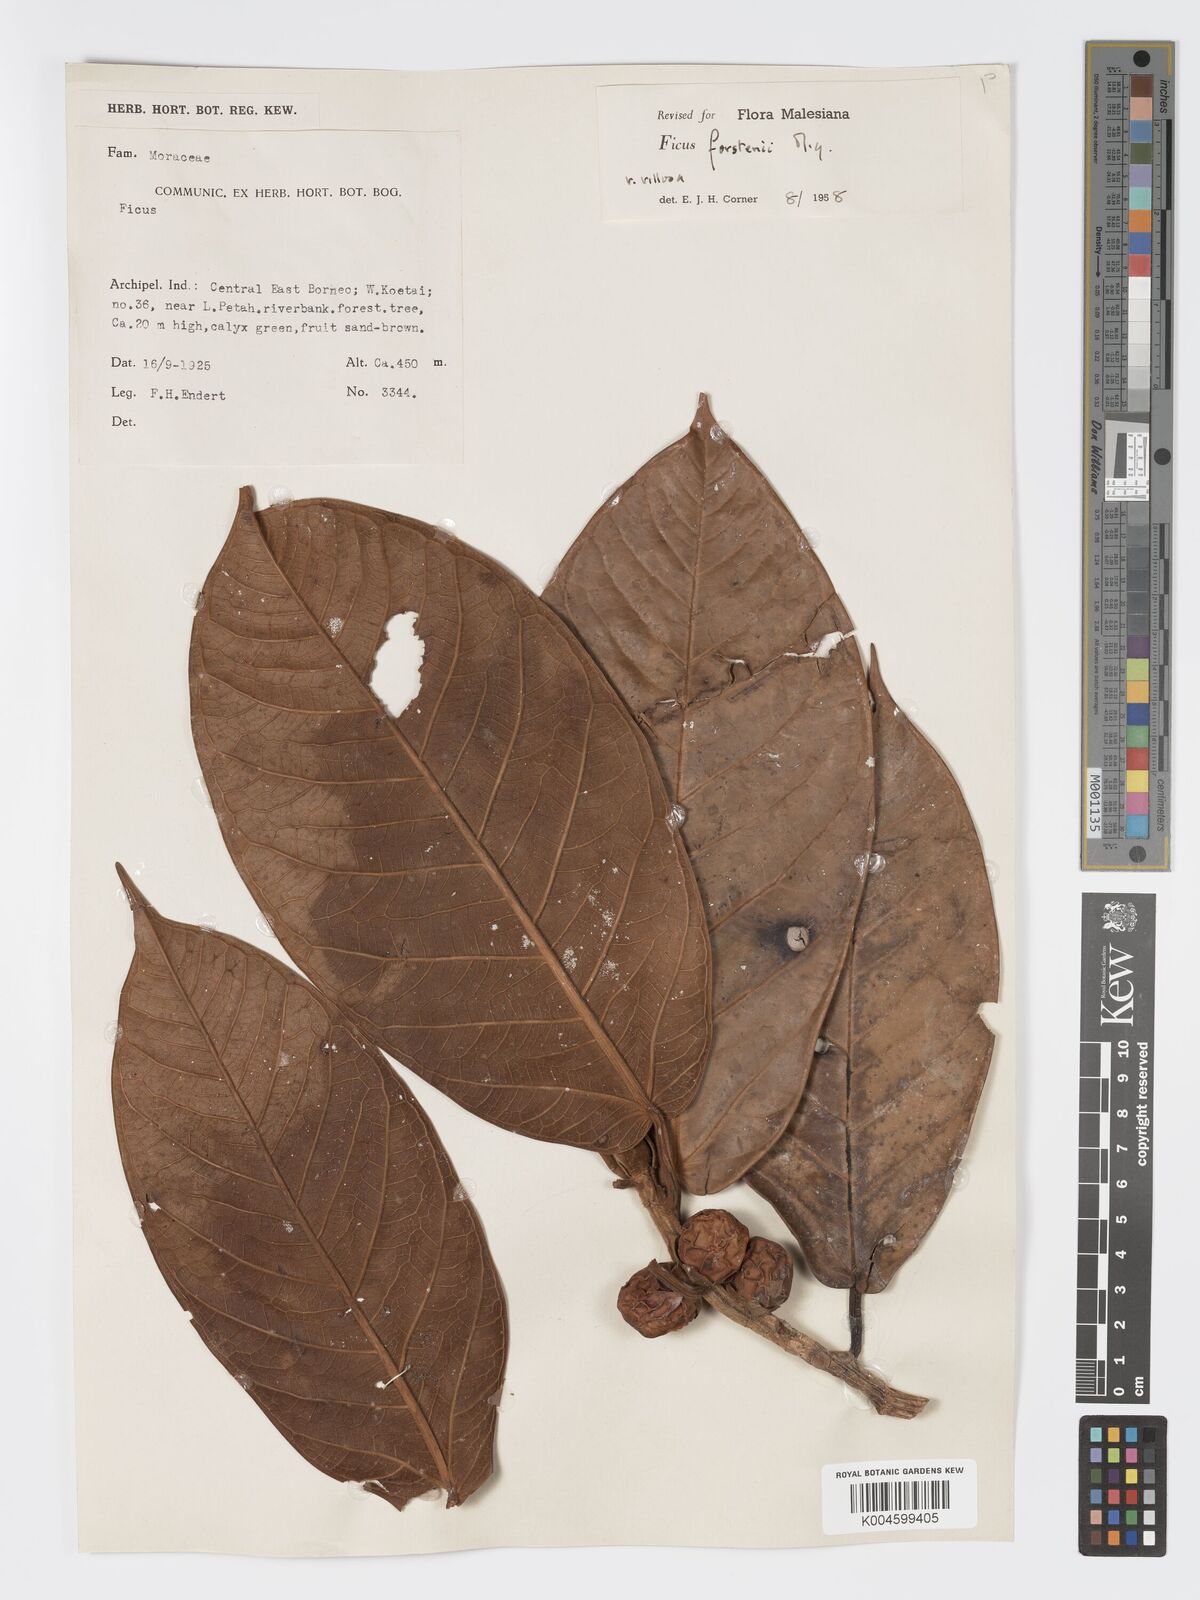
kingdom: Plantae
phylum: Tracheophyta
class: Magnoliopsida
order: Rosales
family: Moraceae
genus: Ficus
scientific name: Ficus forstenii
